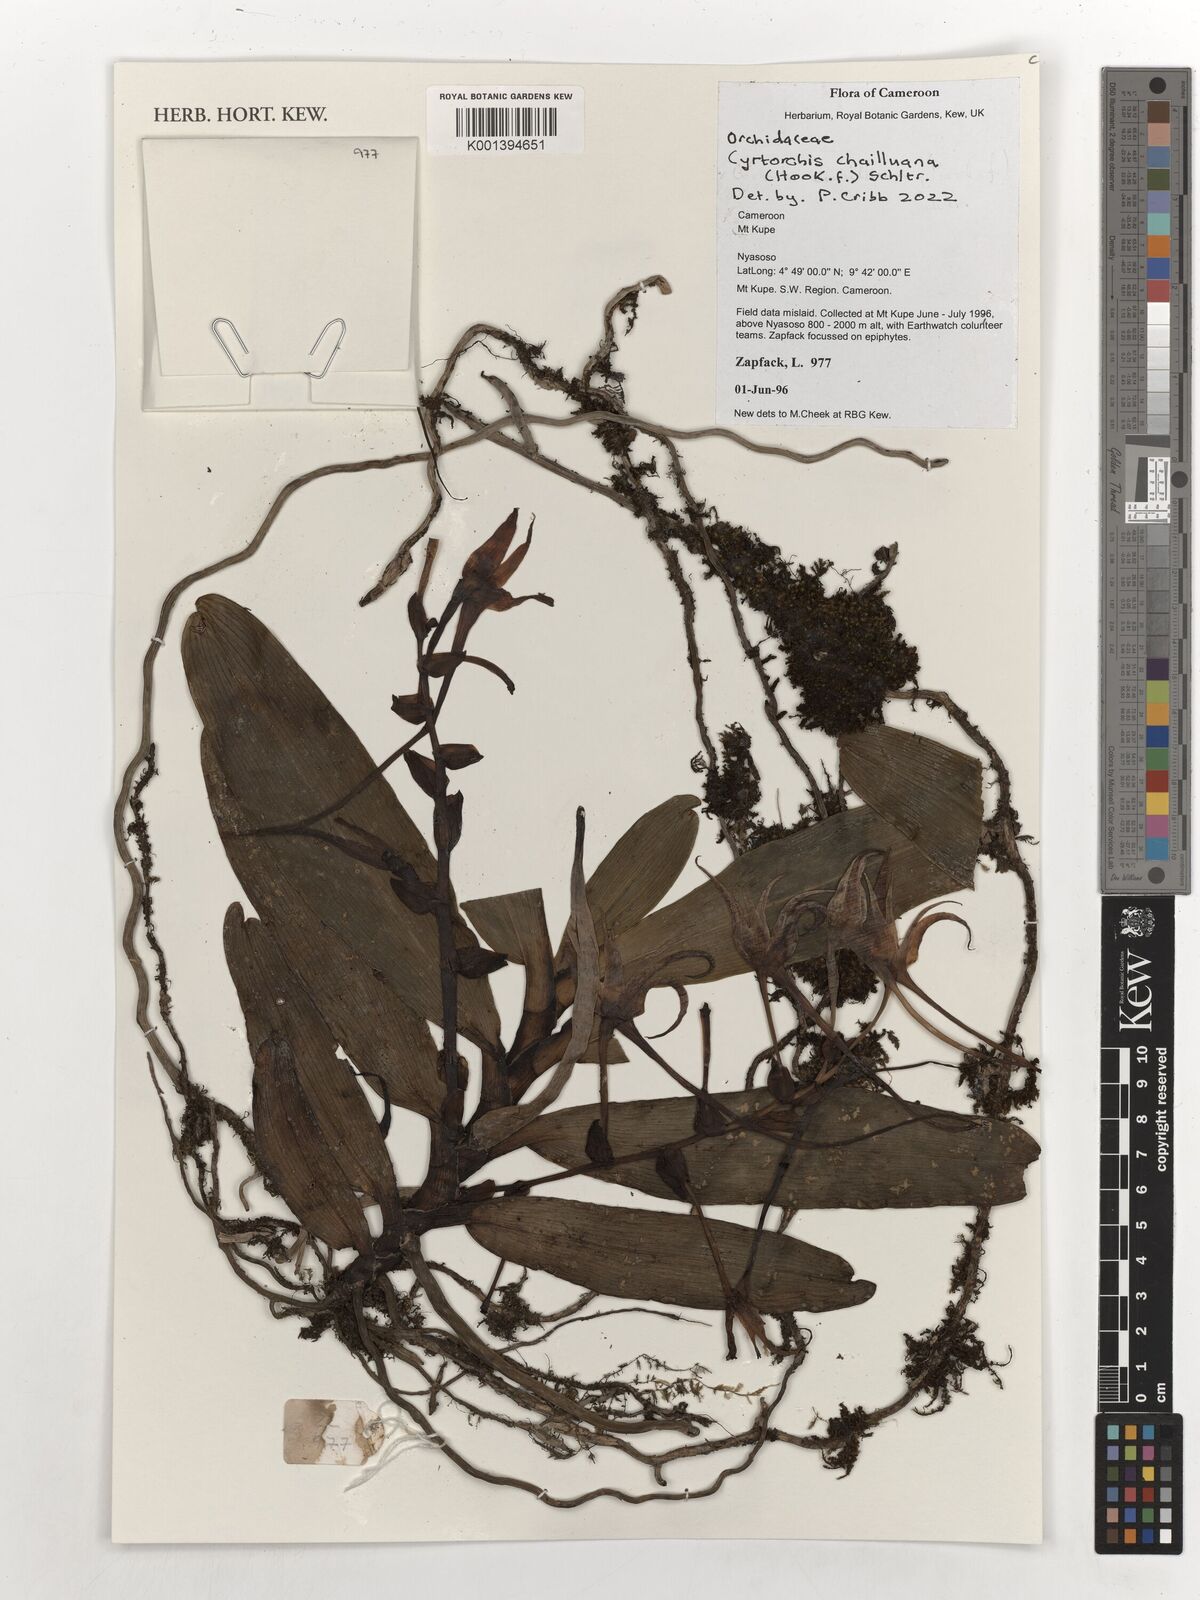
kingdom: Plantae
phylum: Tracheophyta
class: Liliopsida
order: Asparagales
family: Orchidaceae
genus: Cyrtorchis
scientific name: Cyrtorchis chailluana
